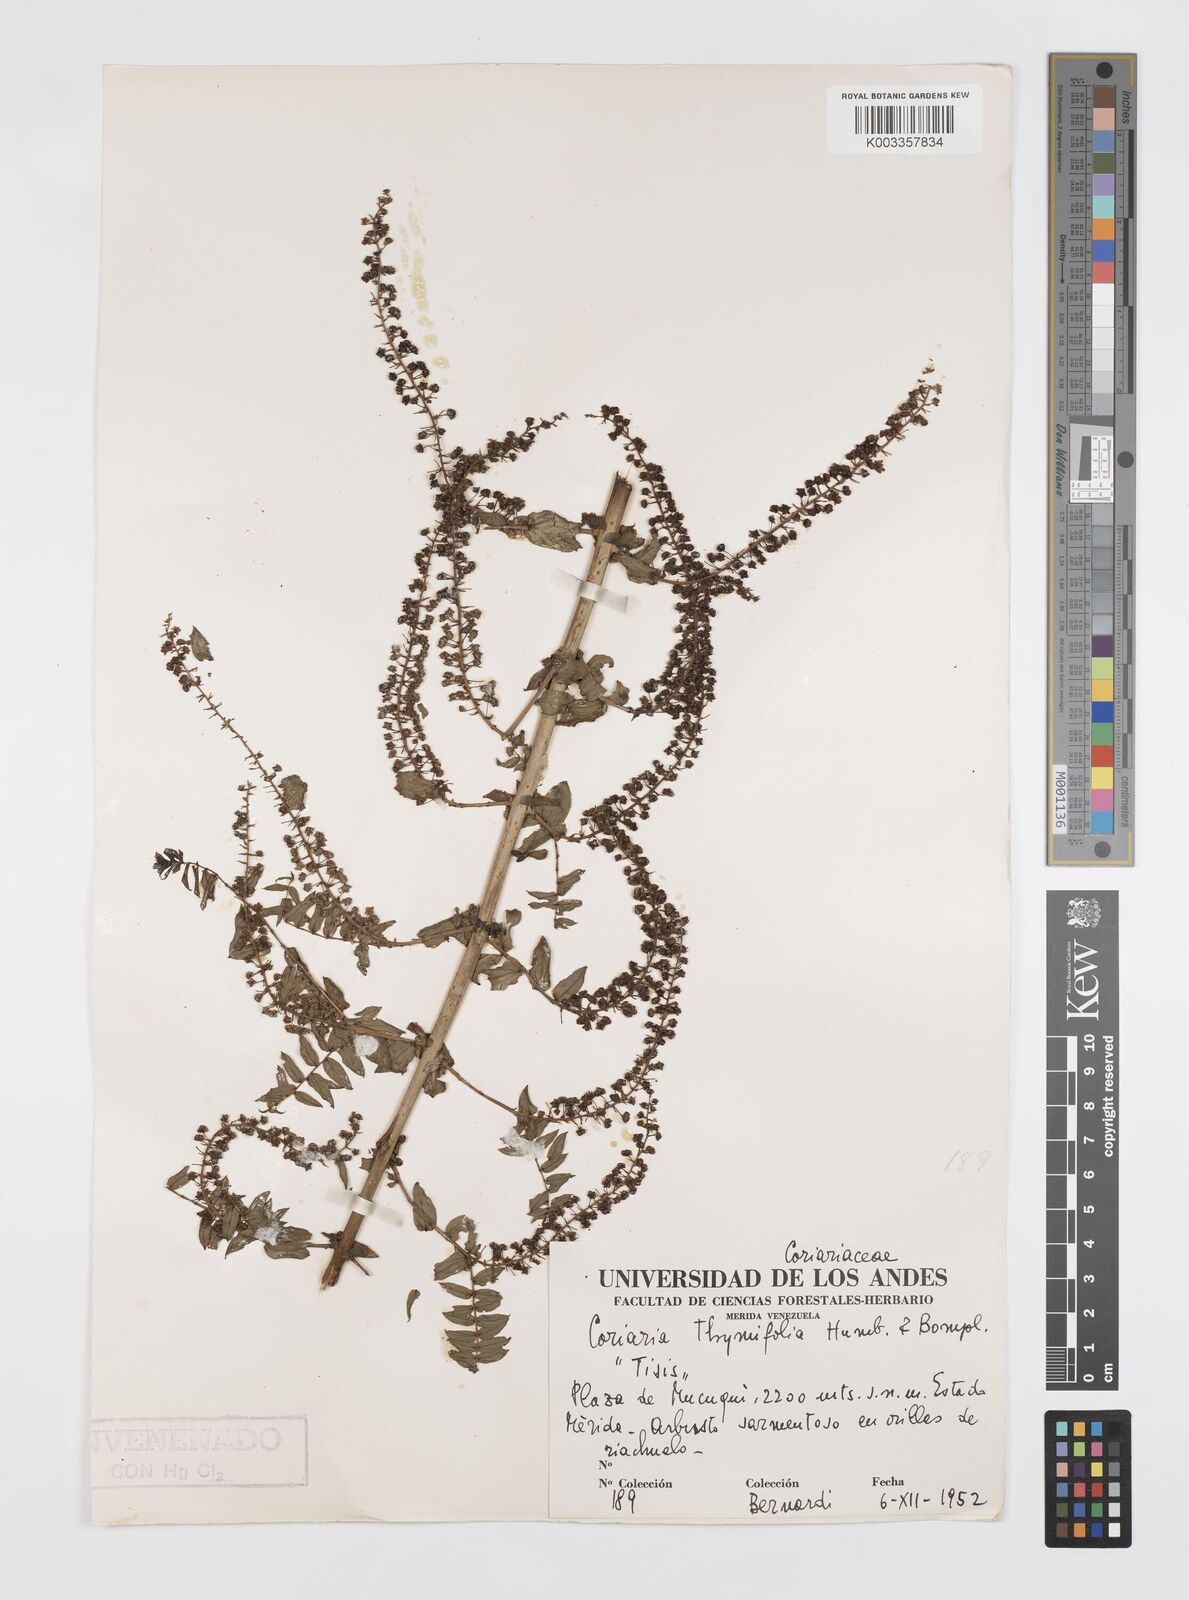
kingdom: Plantae
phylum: Tracheophyta
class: Magnoliopsida
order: Cucurbitales
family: Coriariaceae
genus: Coriaria
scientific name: Coriaria microphylla
